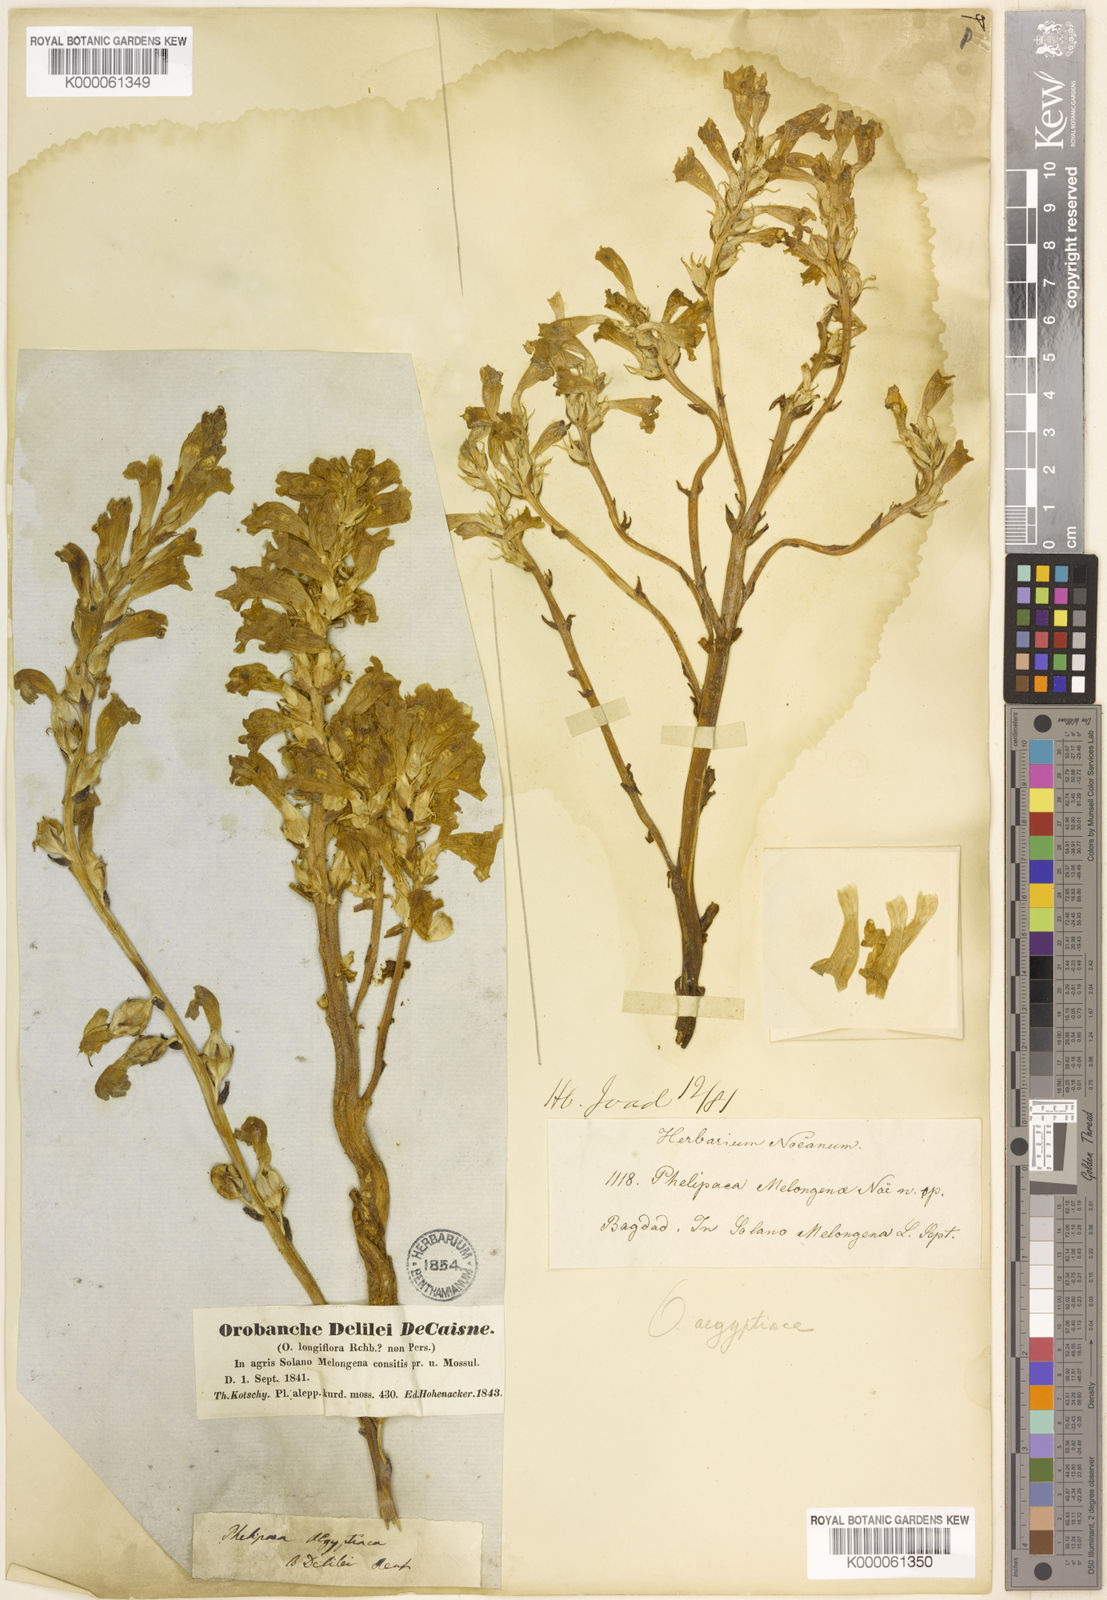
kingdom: Plantae
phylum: Tracheophyta
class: Magnoliopsida
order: Lamiales
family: Orobanchaceae
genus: Phelipanche
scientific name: Phelipanche aegyptiaca
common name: Egyptian broomrape
